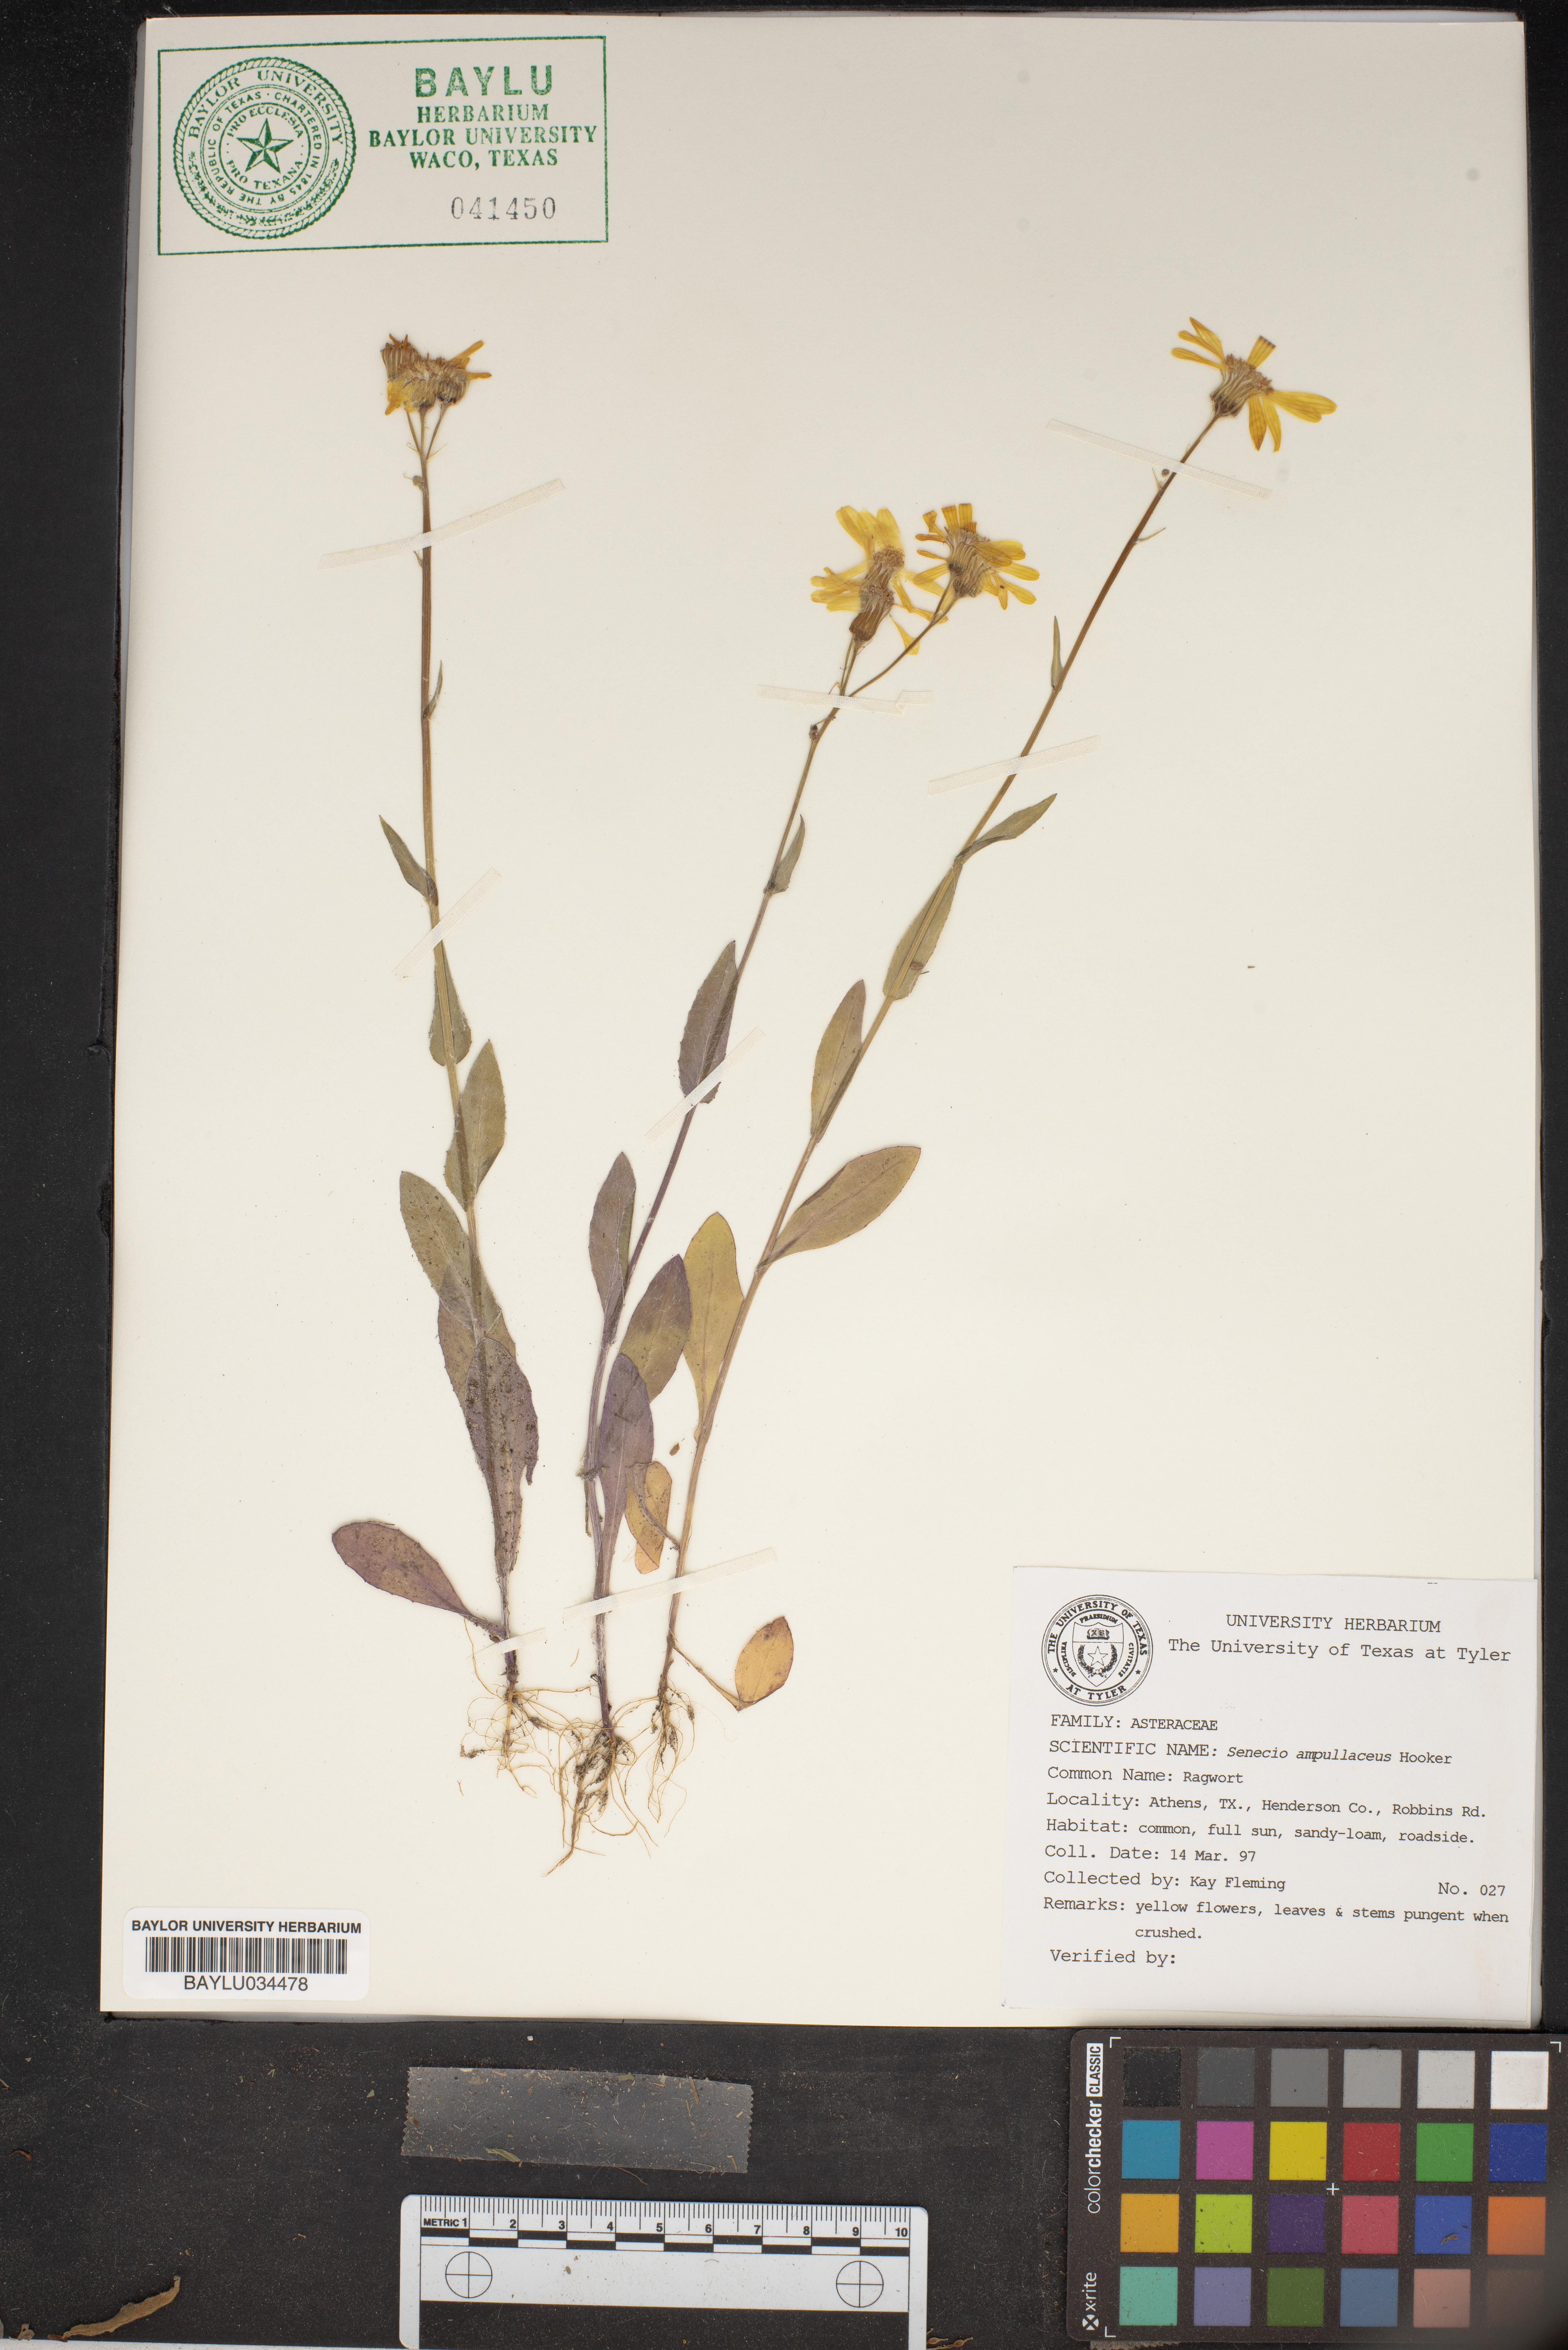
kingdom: Plantae
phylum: Tracheophyta
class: Magnoliopsida
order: Asterales
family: Asteraceae
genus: Senecio
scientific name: Senecio ampullaceus
